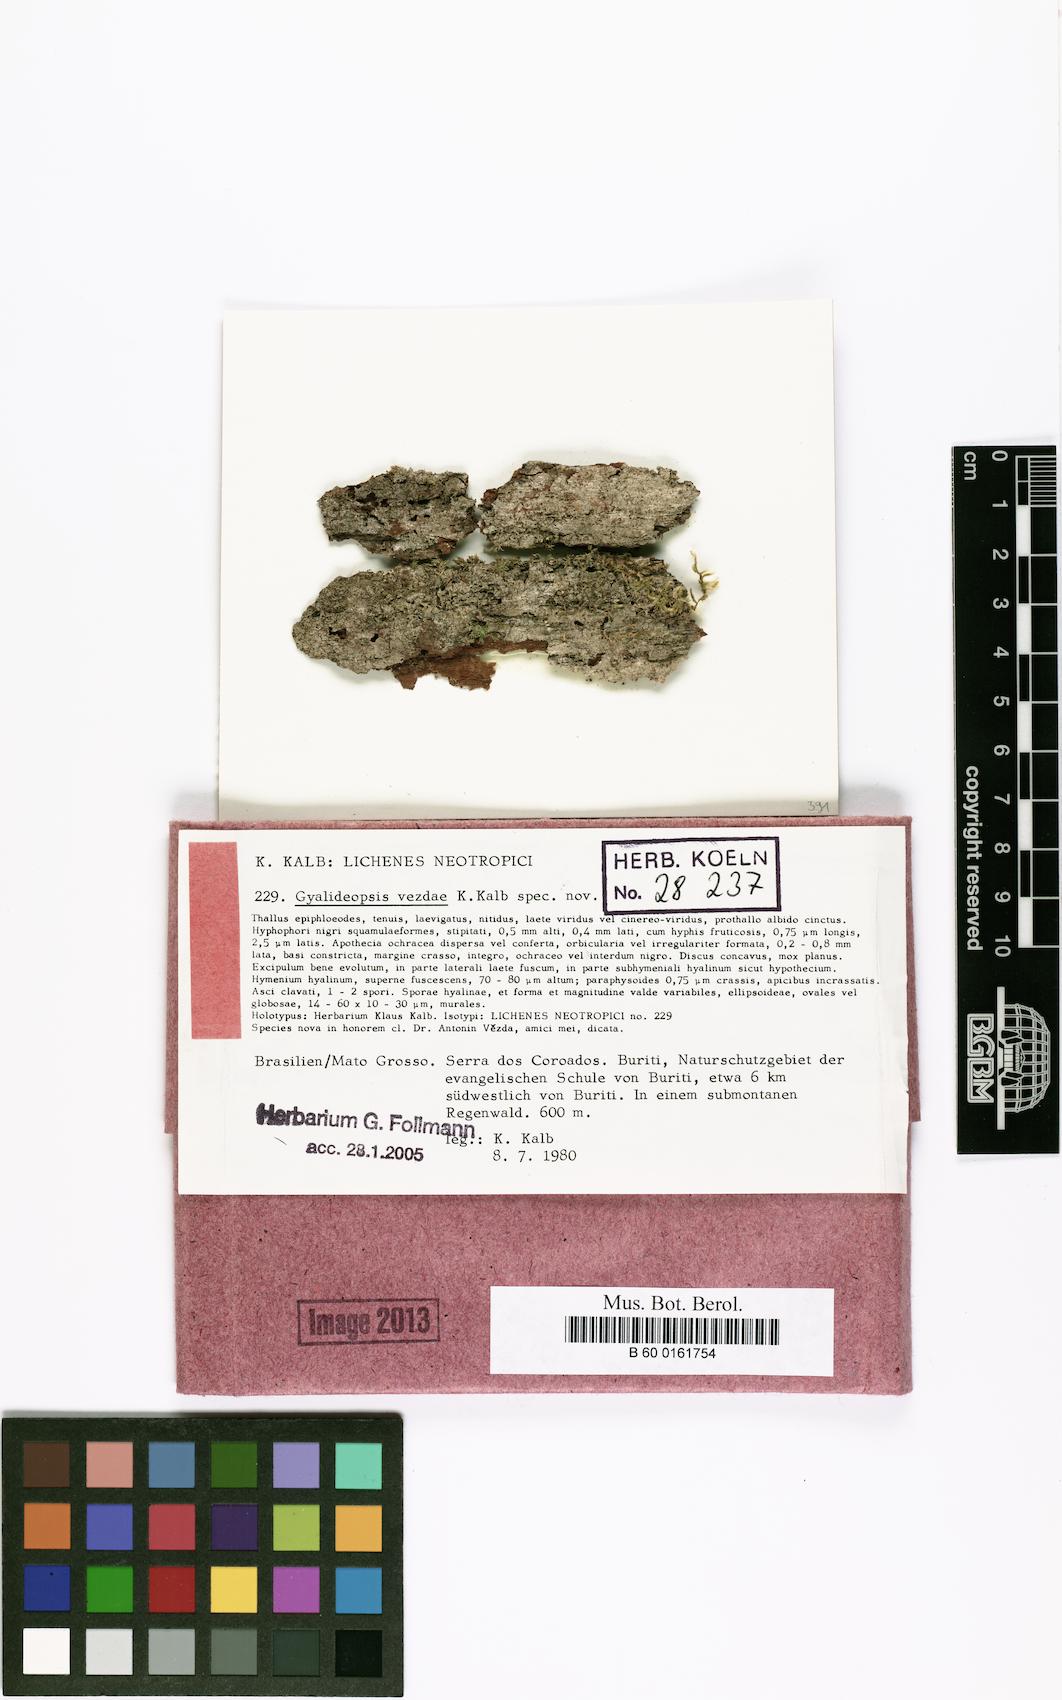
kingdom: Fungi
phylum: Ascomycota
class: Lecanoromycetes
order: Ostropales
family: Gomphillaceae
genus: Gyalideopsis
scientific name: Gyalideopsis
